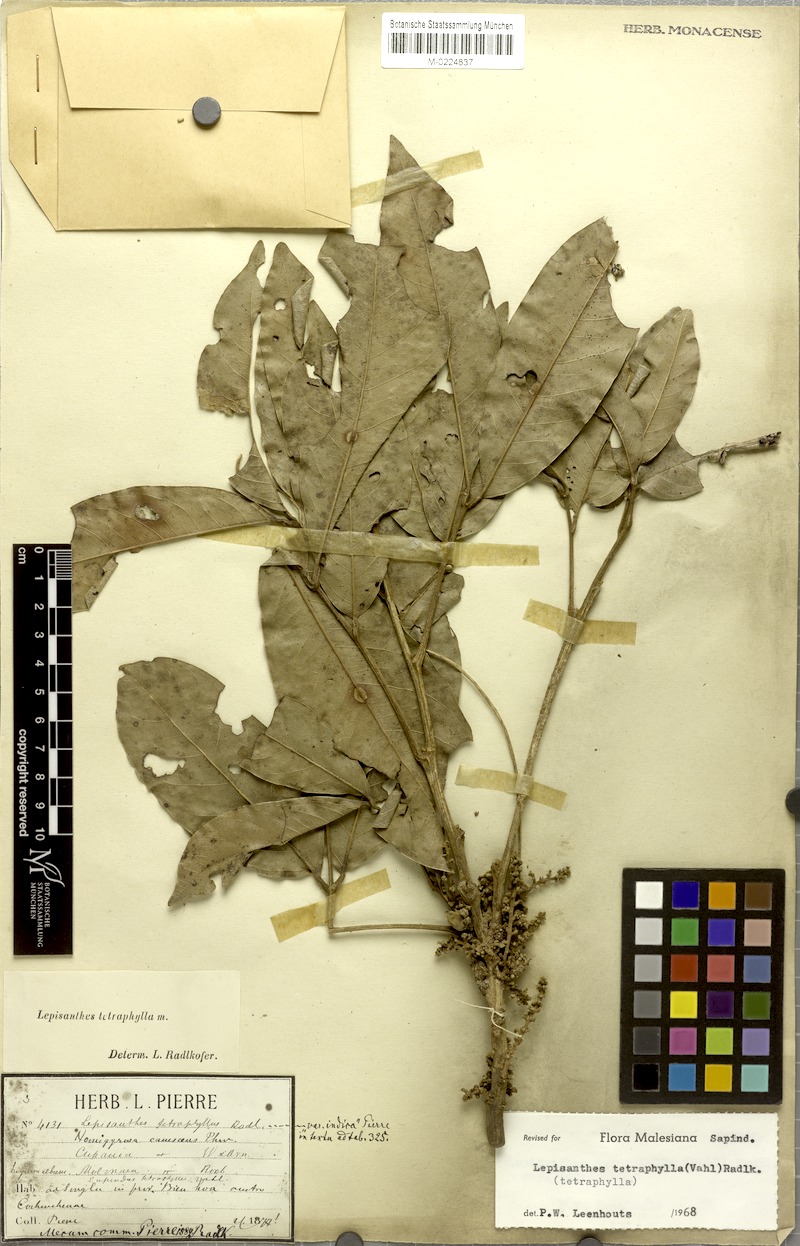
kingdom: Plantae
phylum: Tracheophyta
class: Magnoliopsida
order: Sapindales
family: Sapindaceae
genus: Lepisanthes
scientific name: Lepisanthes tetraphylla
